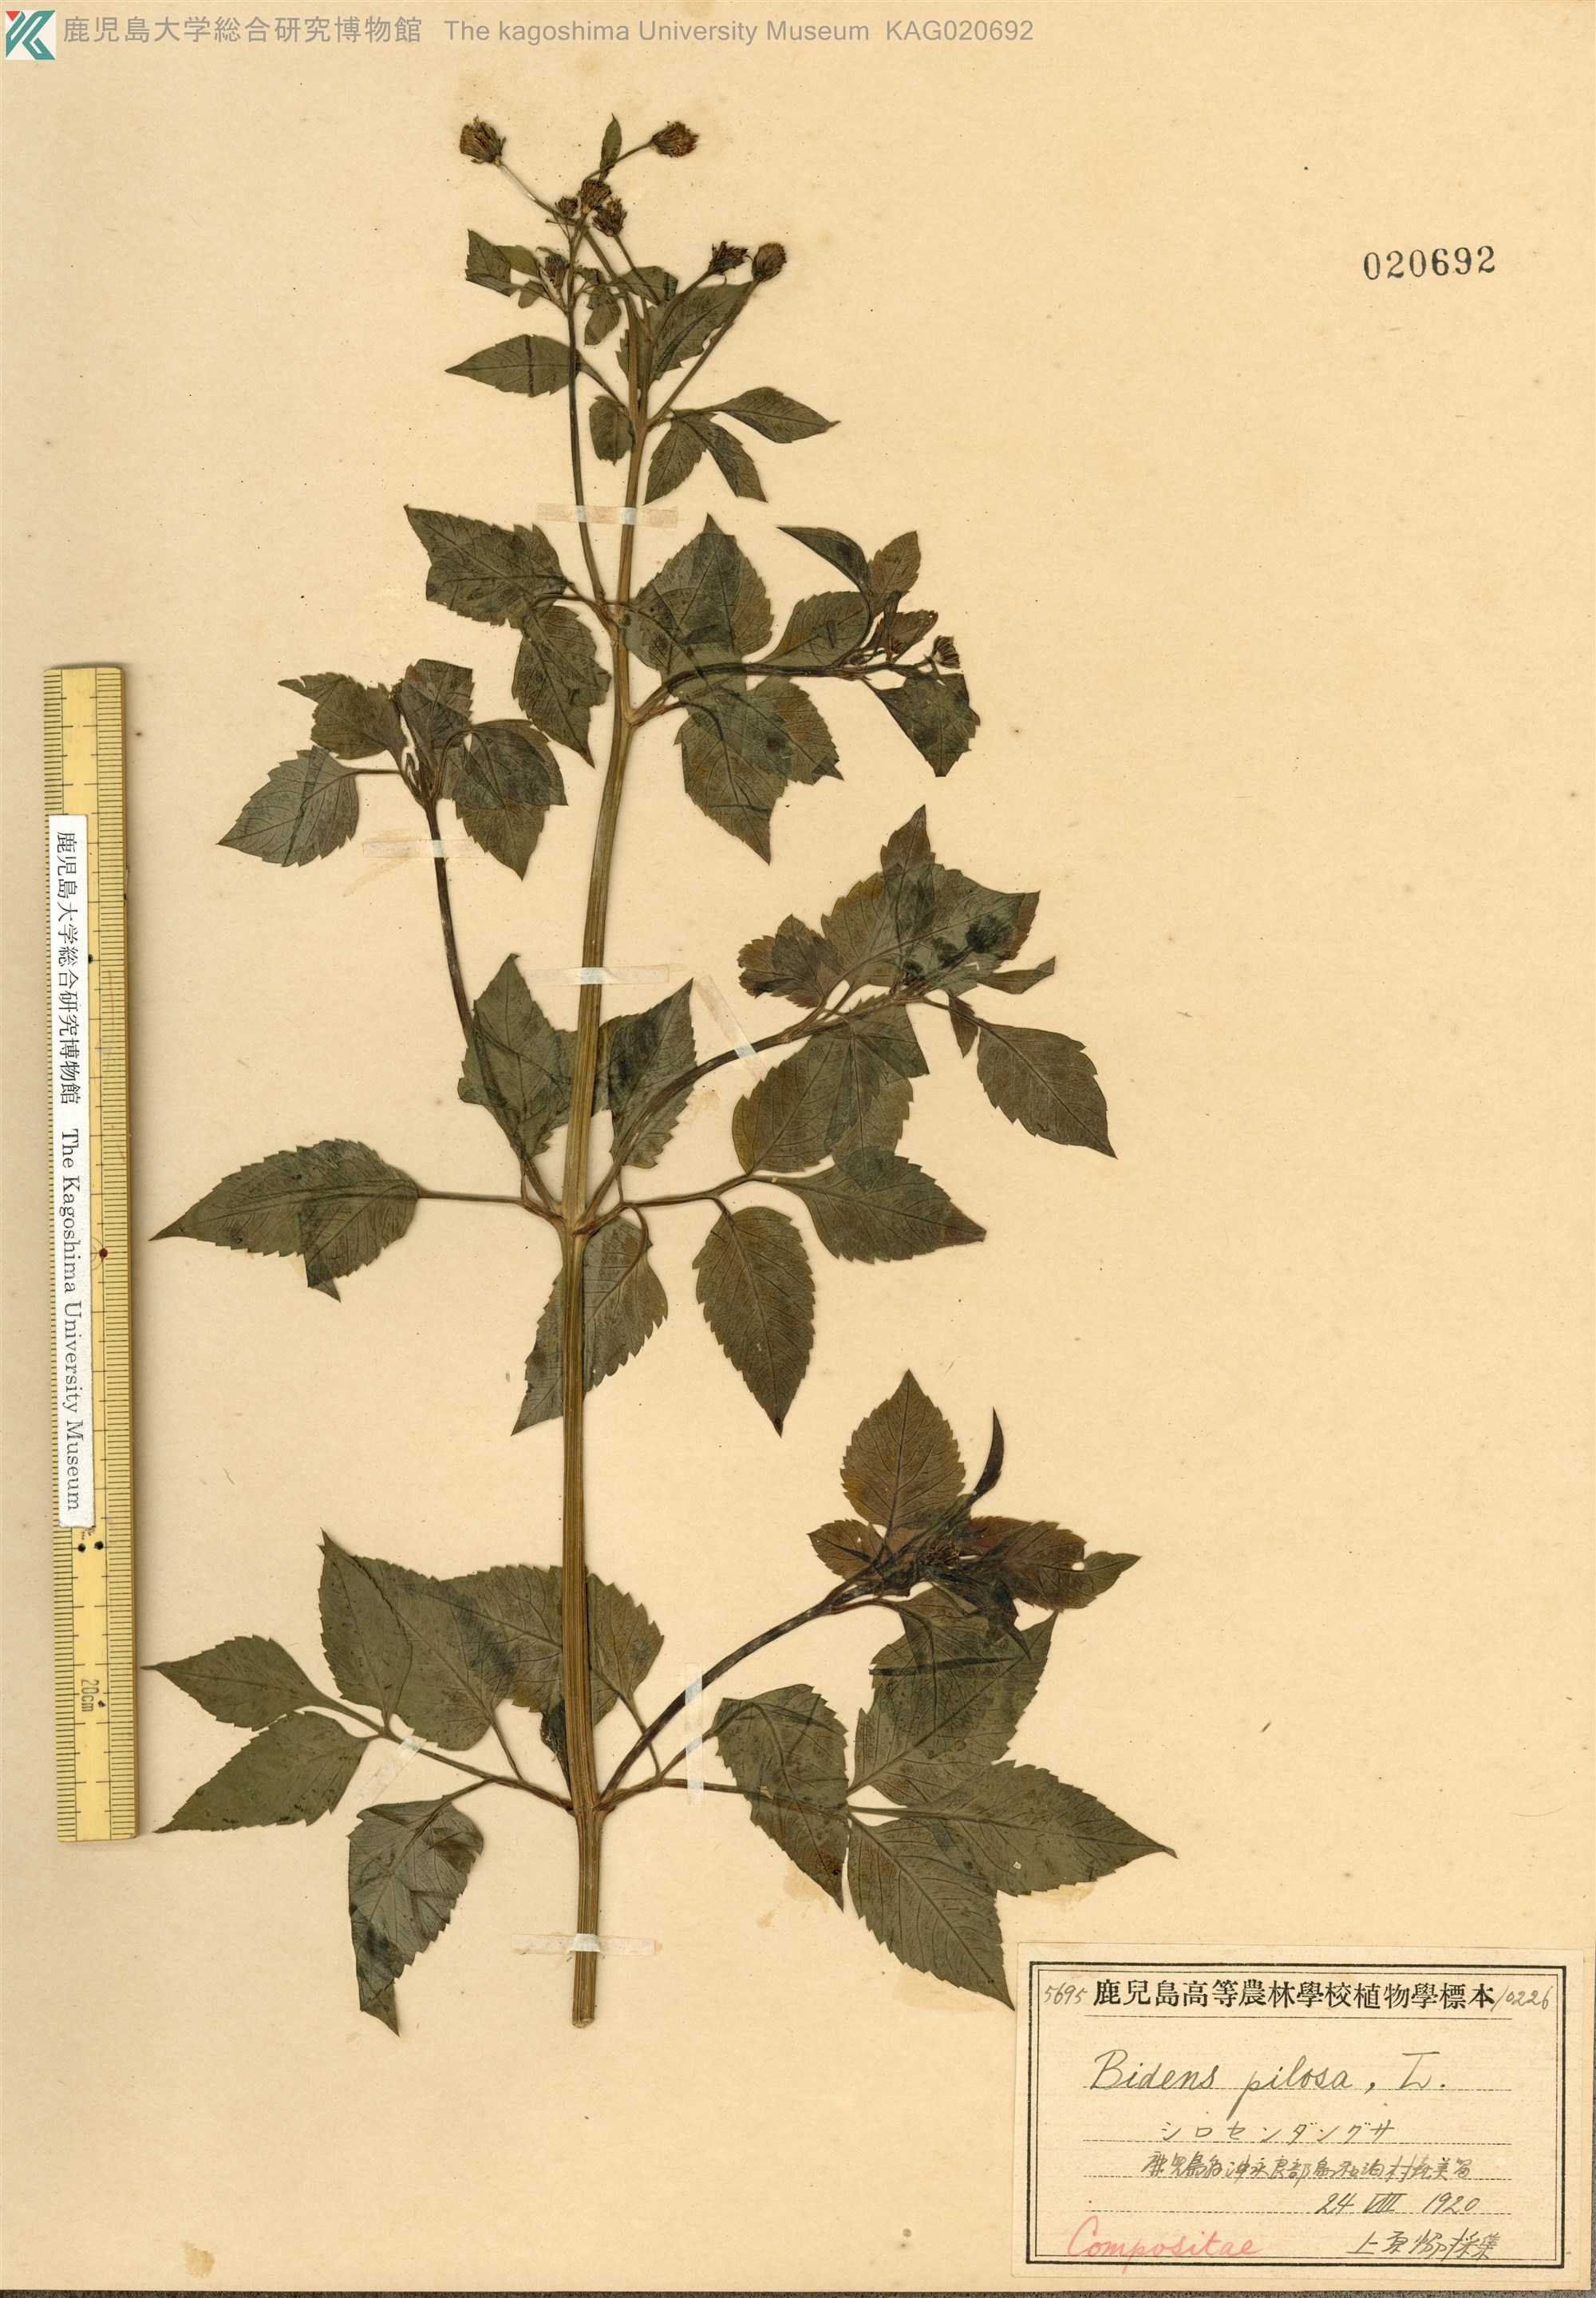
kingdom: Plantae
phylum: Tracheophyta
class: Magnoliopsida
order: Asterales
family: Asteraceae
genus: Bidens
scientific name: Bidens pilosa
